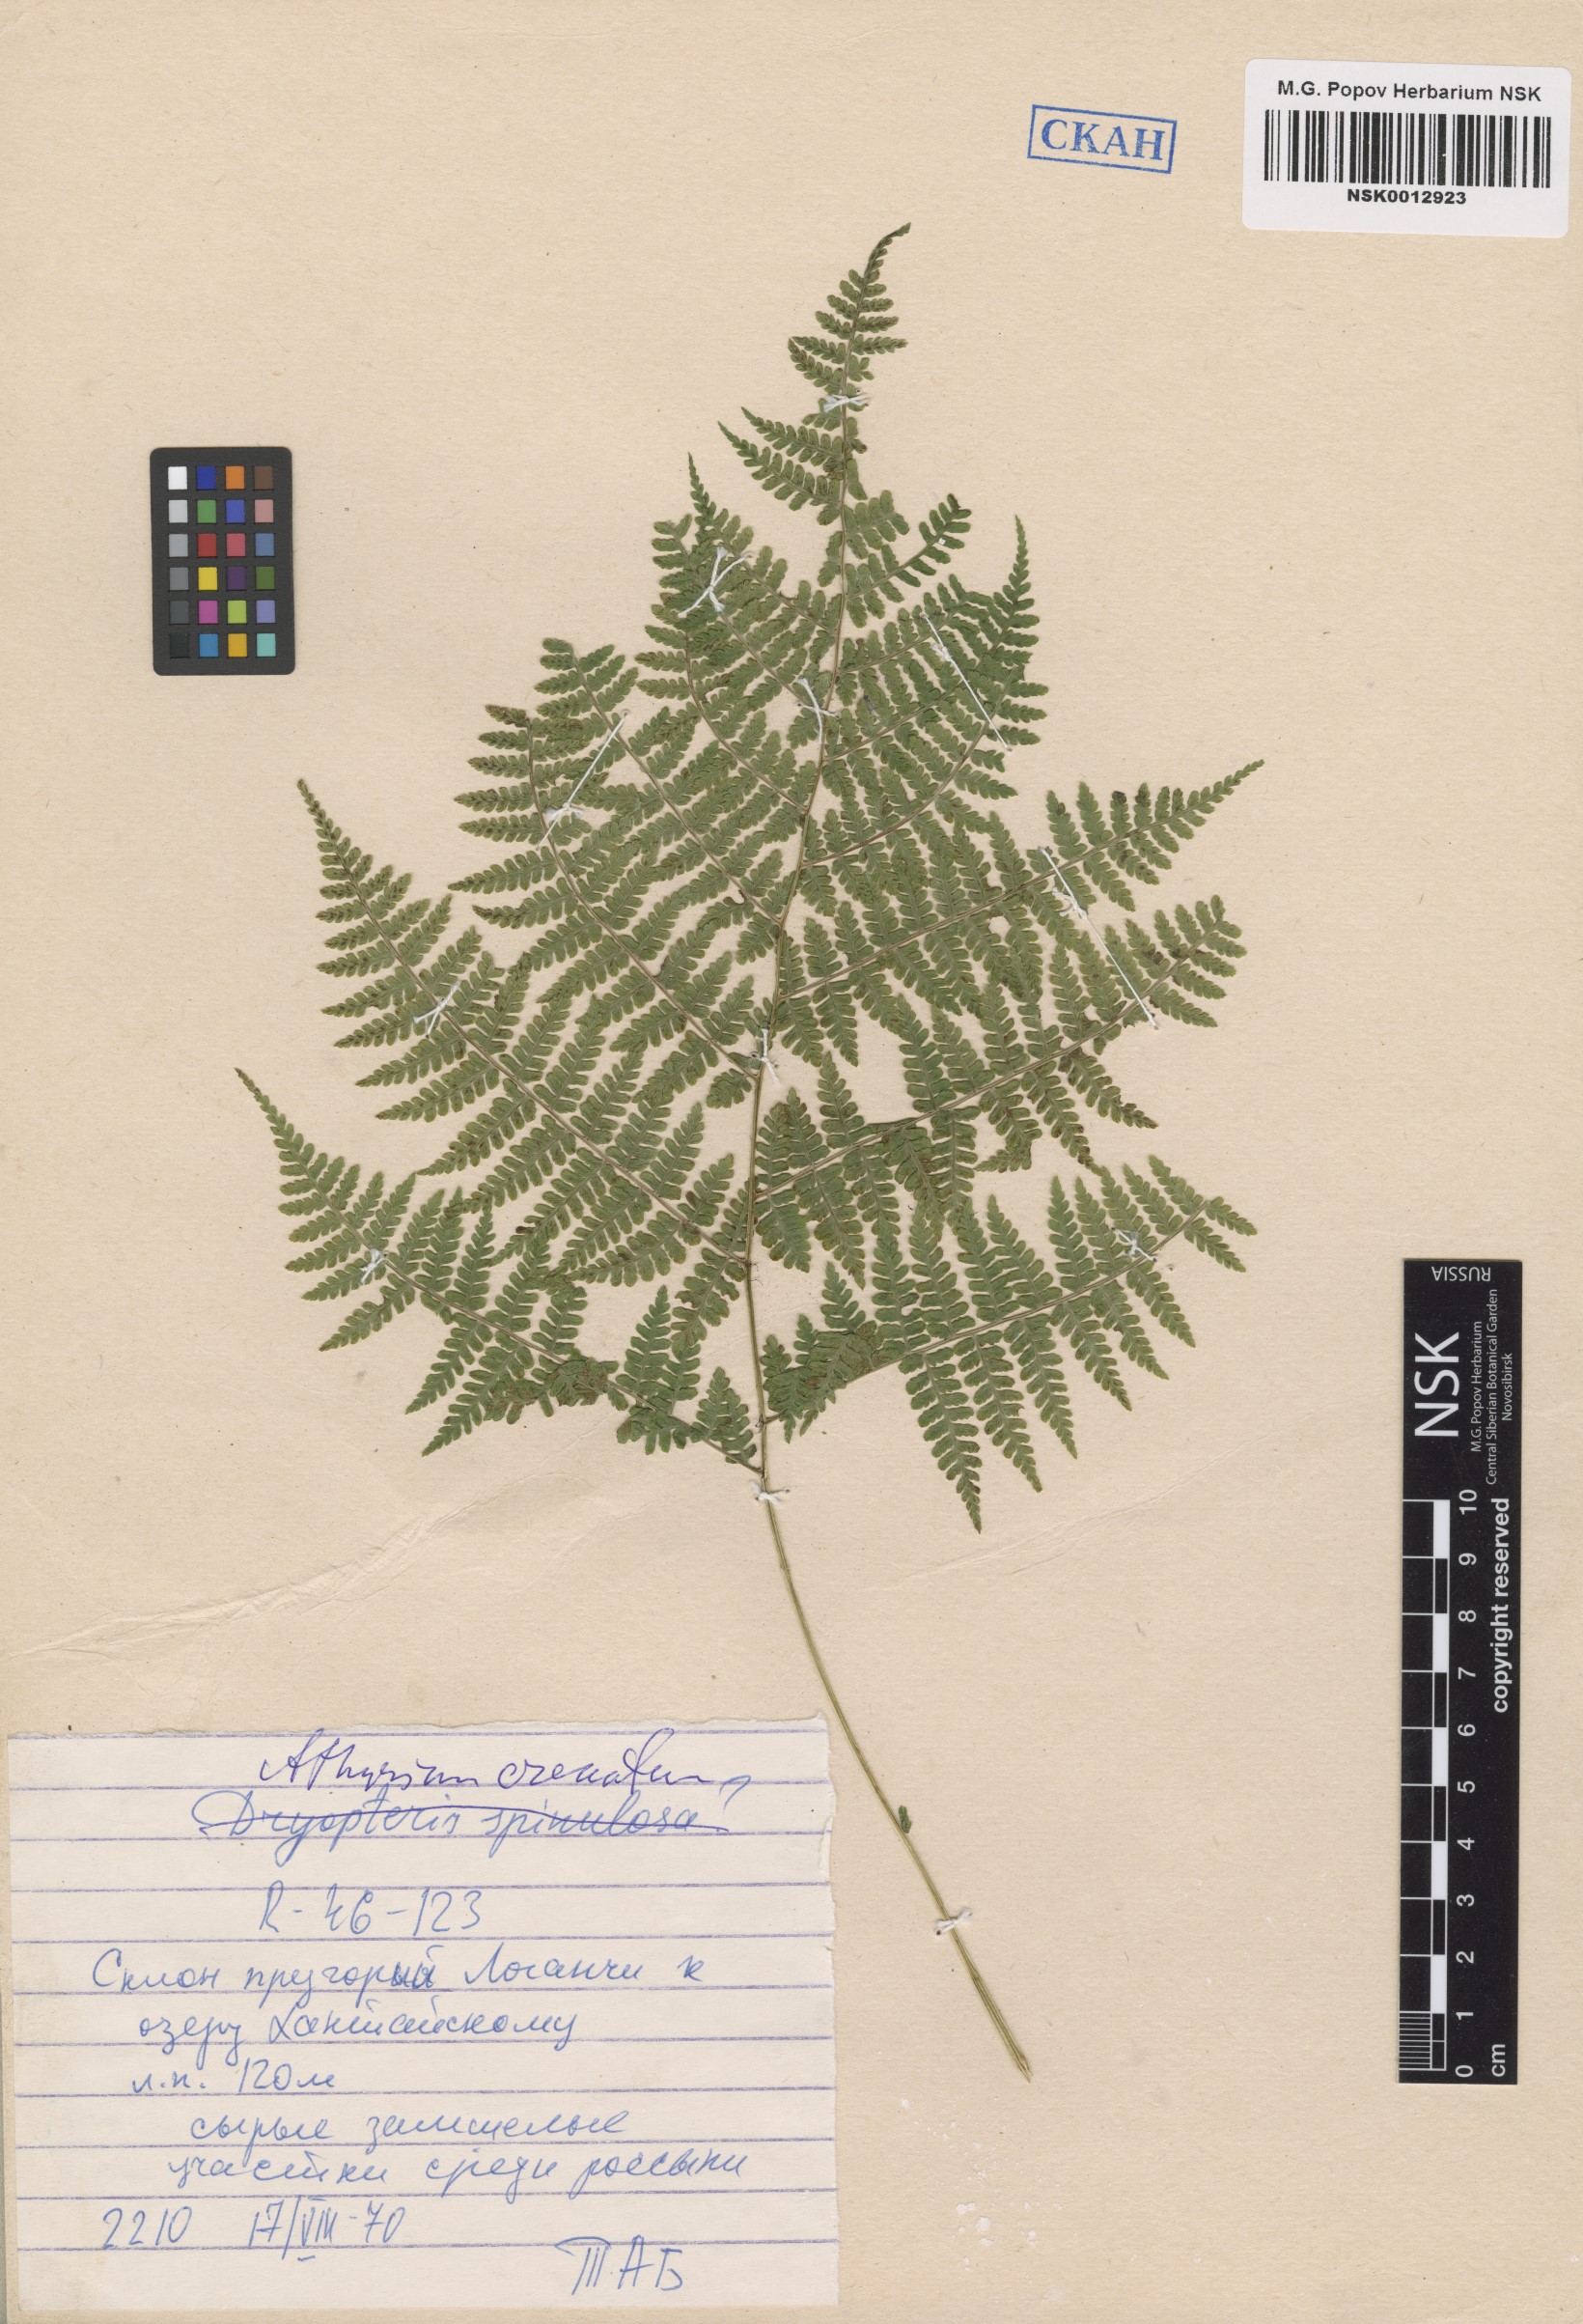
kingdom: Plantae
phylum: Tracheophyta
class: Polypodiopsida
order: Polypodiales
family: Athyriaceae
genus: Diplazium
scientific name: Diplazium sibiricum
